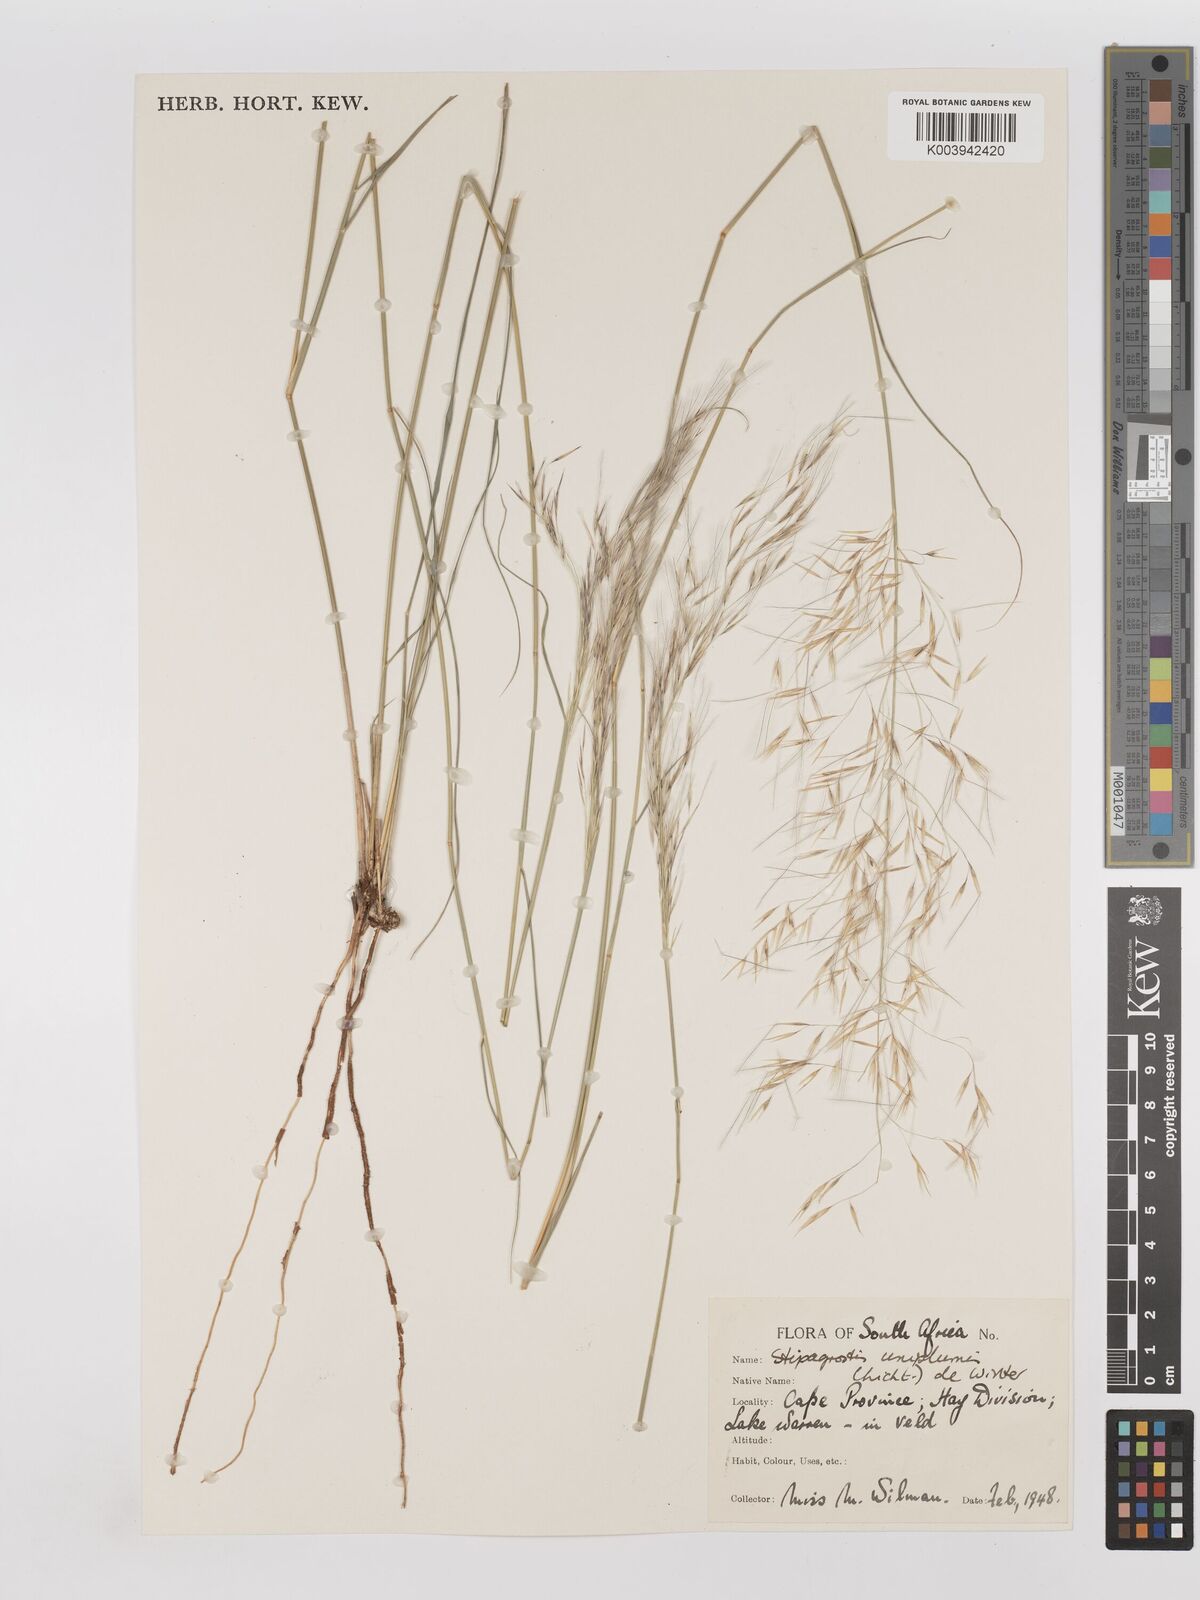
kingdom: Plantae
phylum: Tracheophyta
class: Liliopsida
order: Poales
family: Poaceae
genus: Stipagrostis
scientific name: Stipagrostis uniplumis
